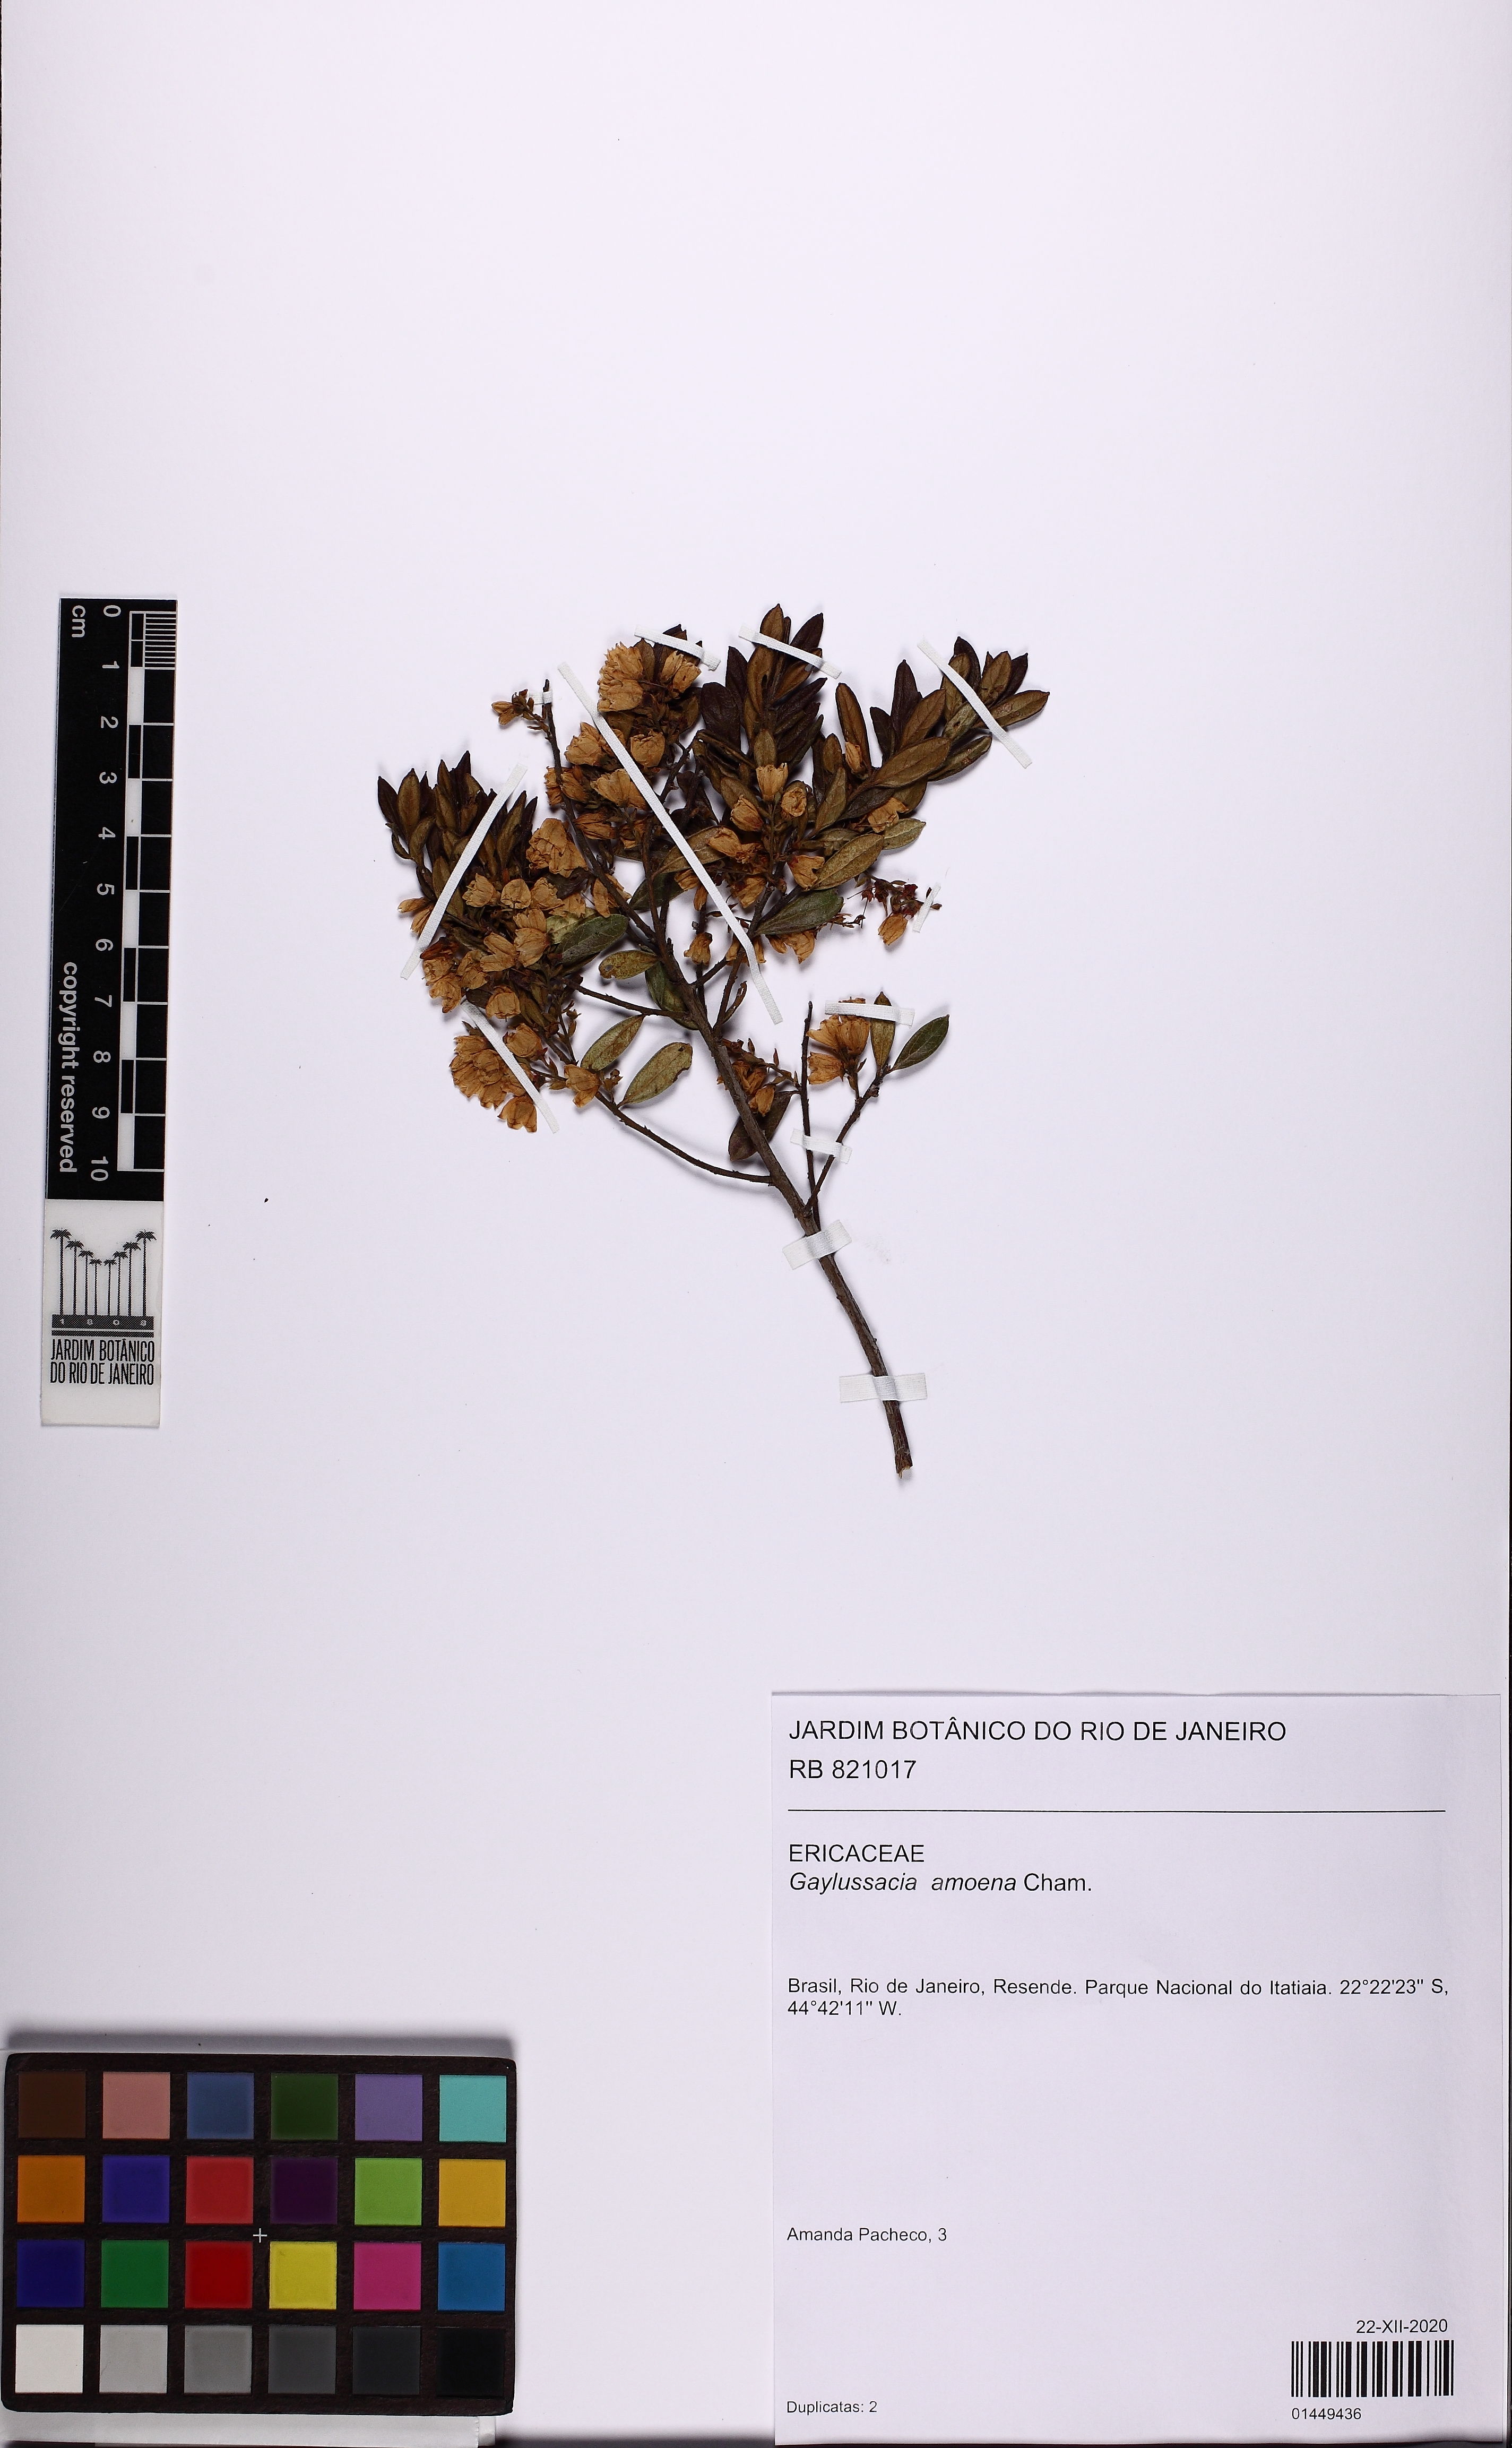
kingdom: Plantae
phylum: Tracheophyta
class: Magnoliopsida
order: Ericales
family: Ericaceae
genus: Gaylussacia
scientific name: Gaylussacia amoena
